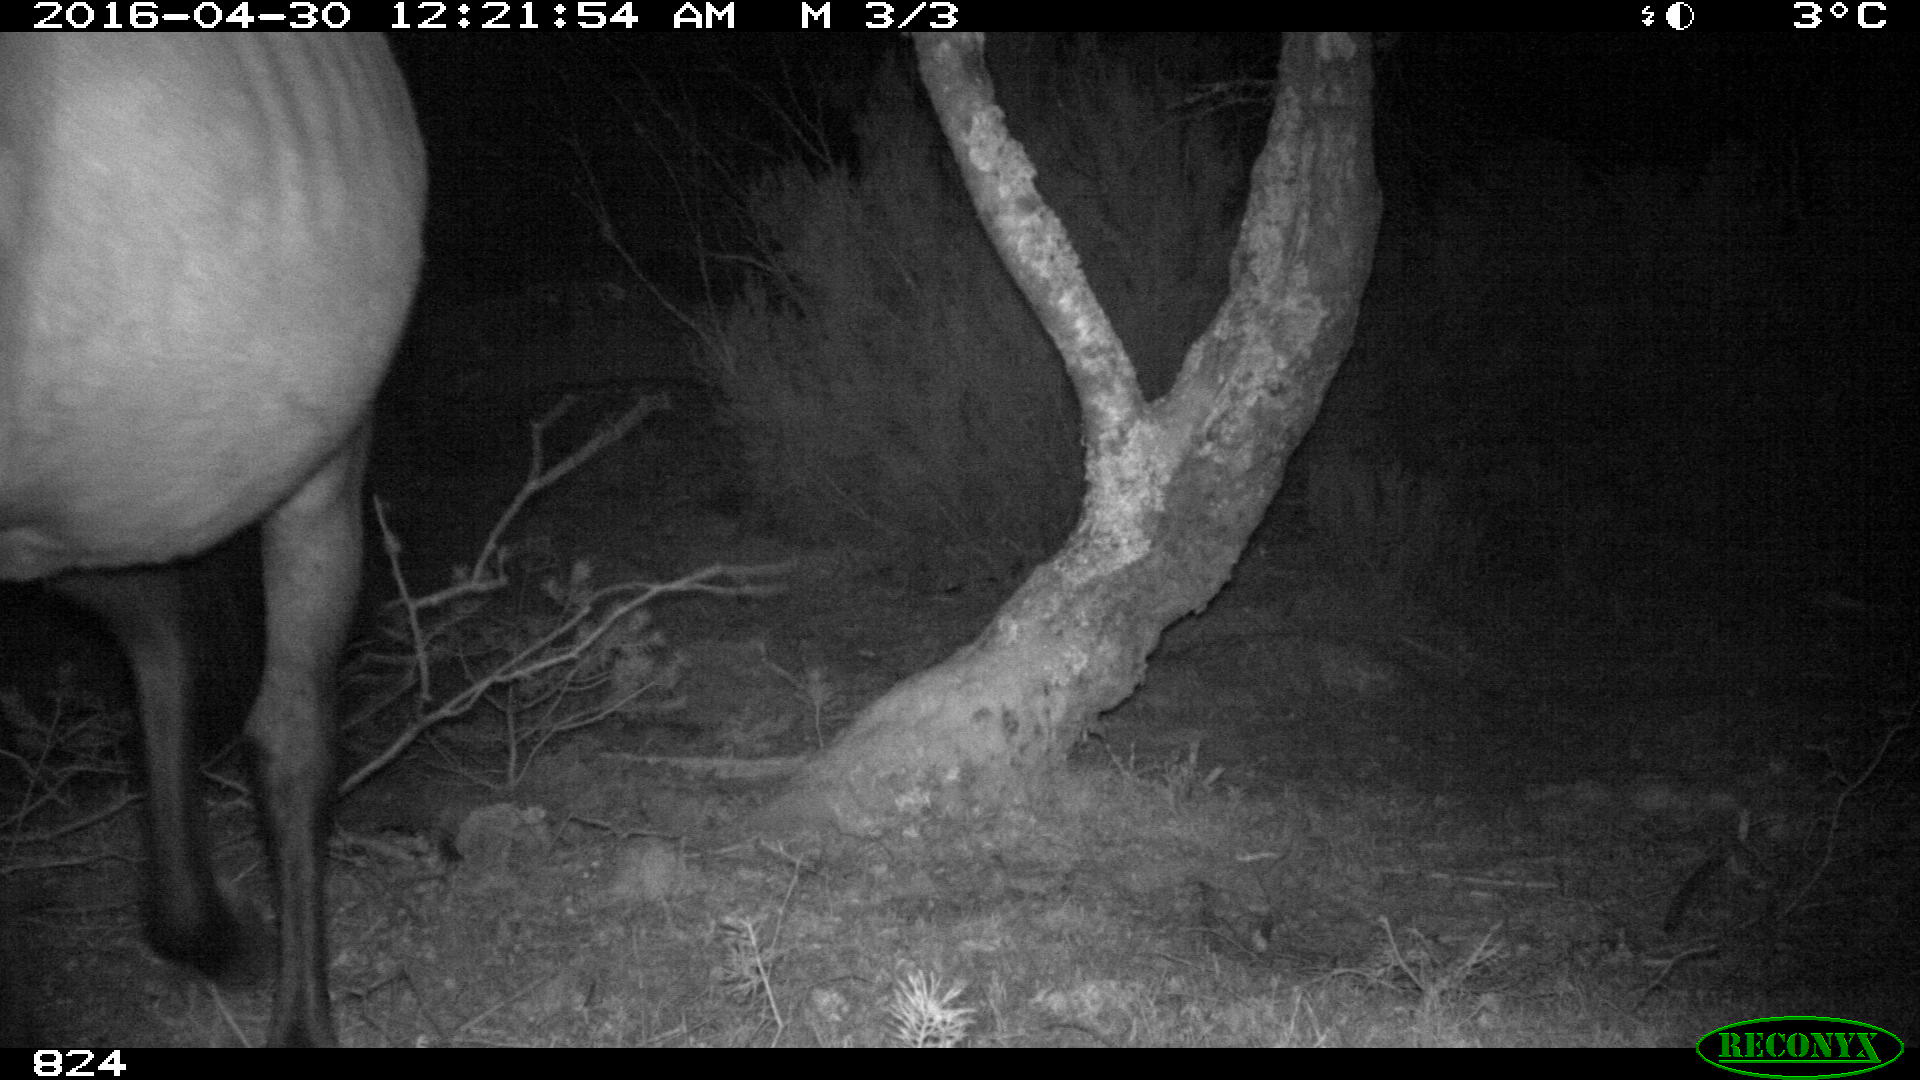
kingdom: Animalia
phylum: Chordata
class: Mammalia
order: Perissodactyla
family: Equidae
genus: Equus
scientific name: Equus caballus
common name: Horse
